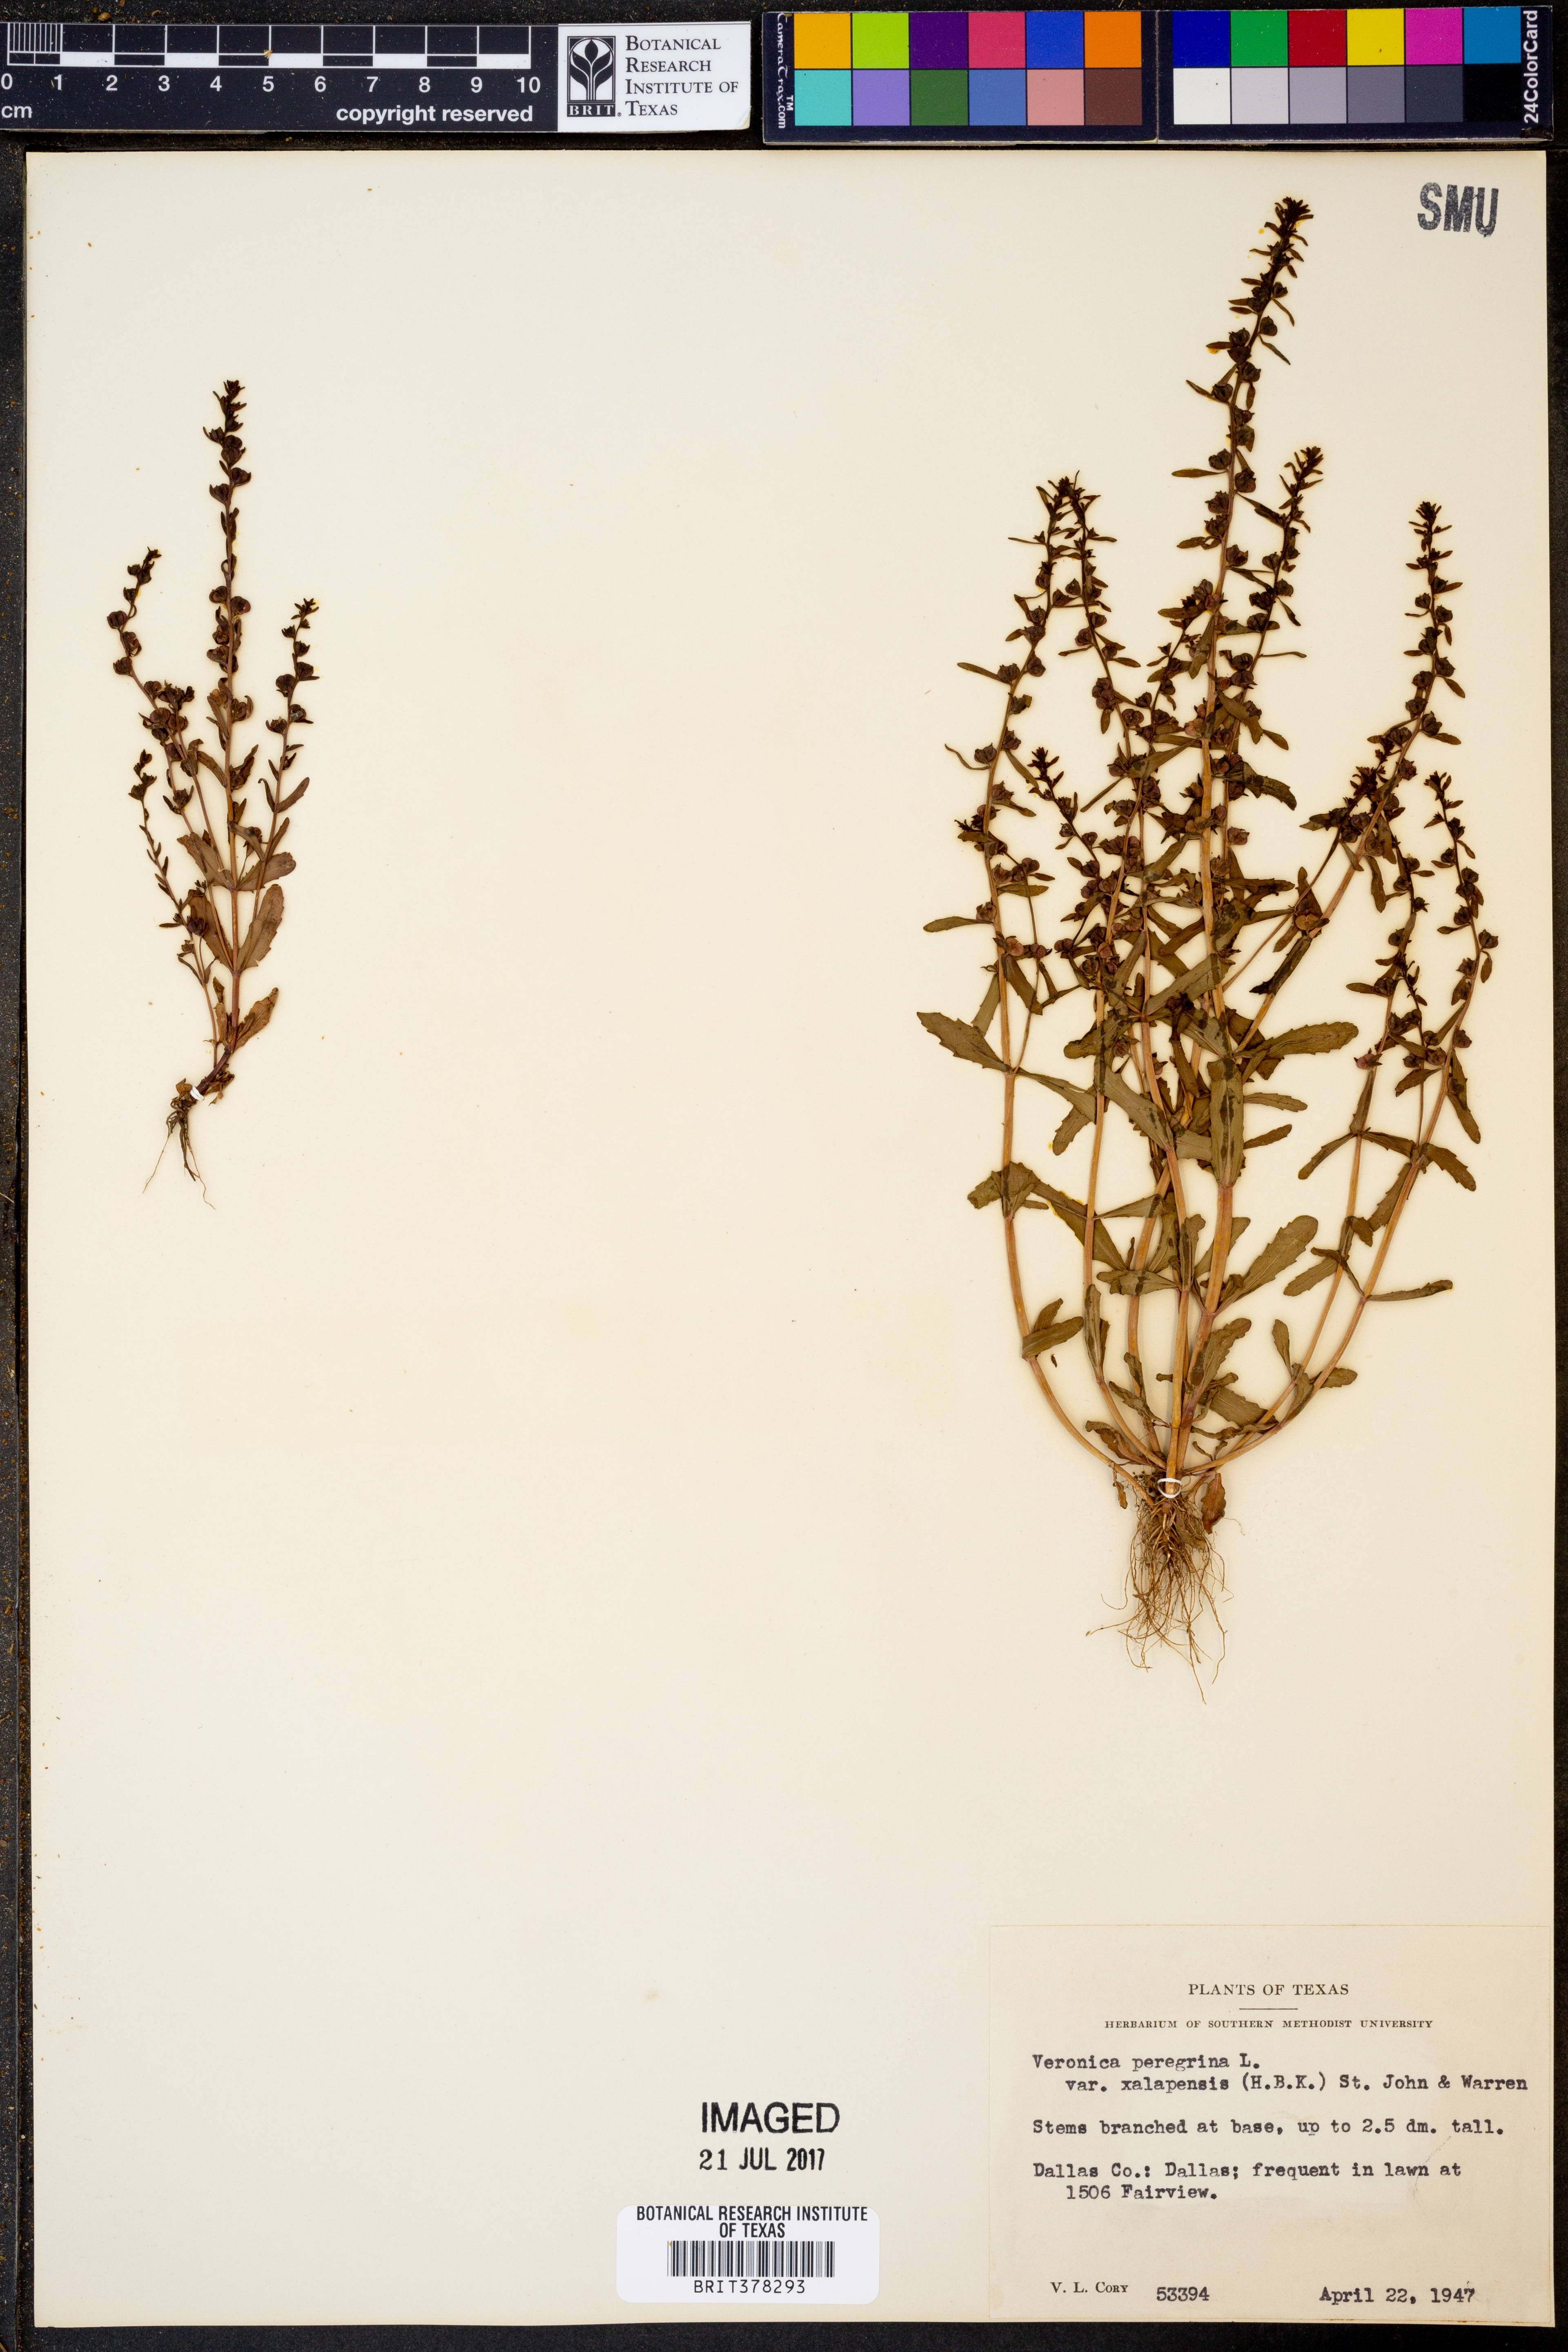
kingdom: Plantae
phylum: Tracheophyta
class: Magnoliopsida
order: Lamiales
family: Plantaginaceae
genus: Veronica
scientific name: Veronica peregrina
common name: Neckweed
